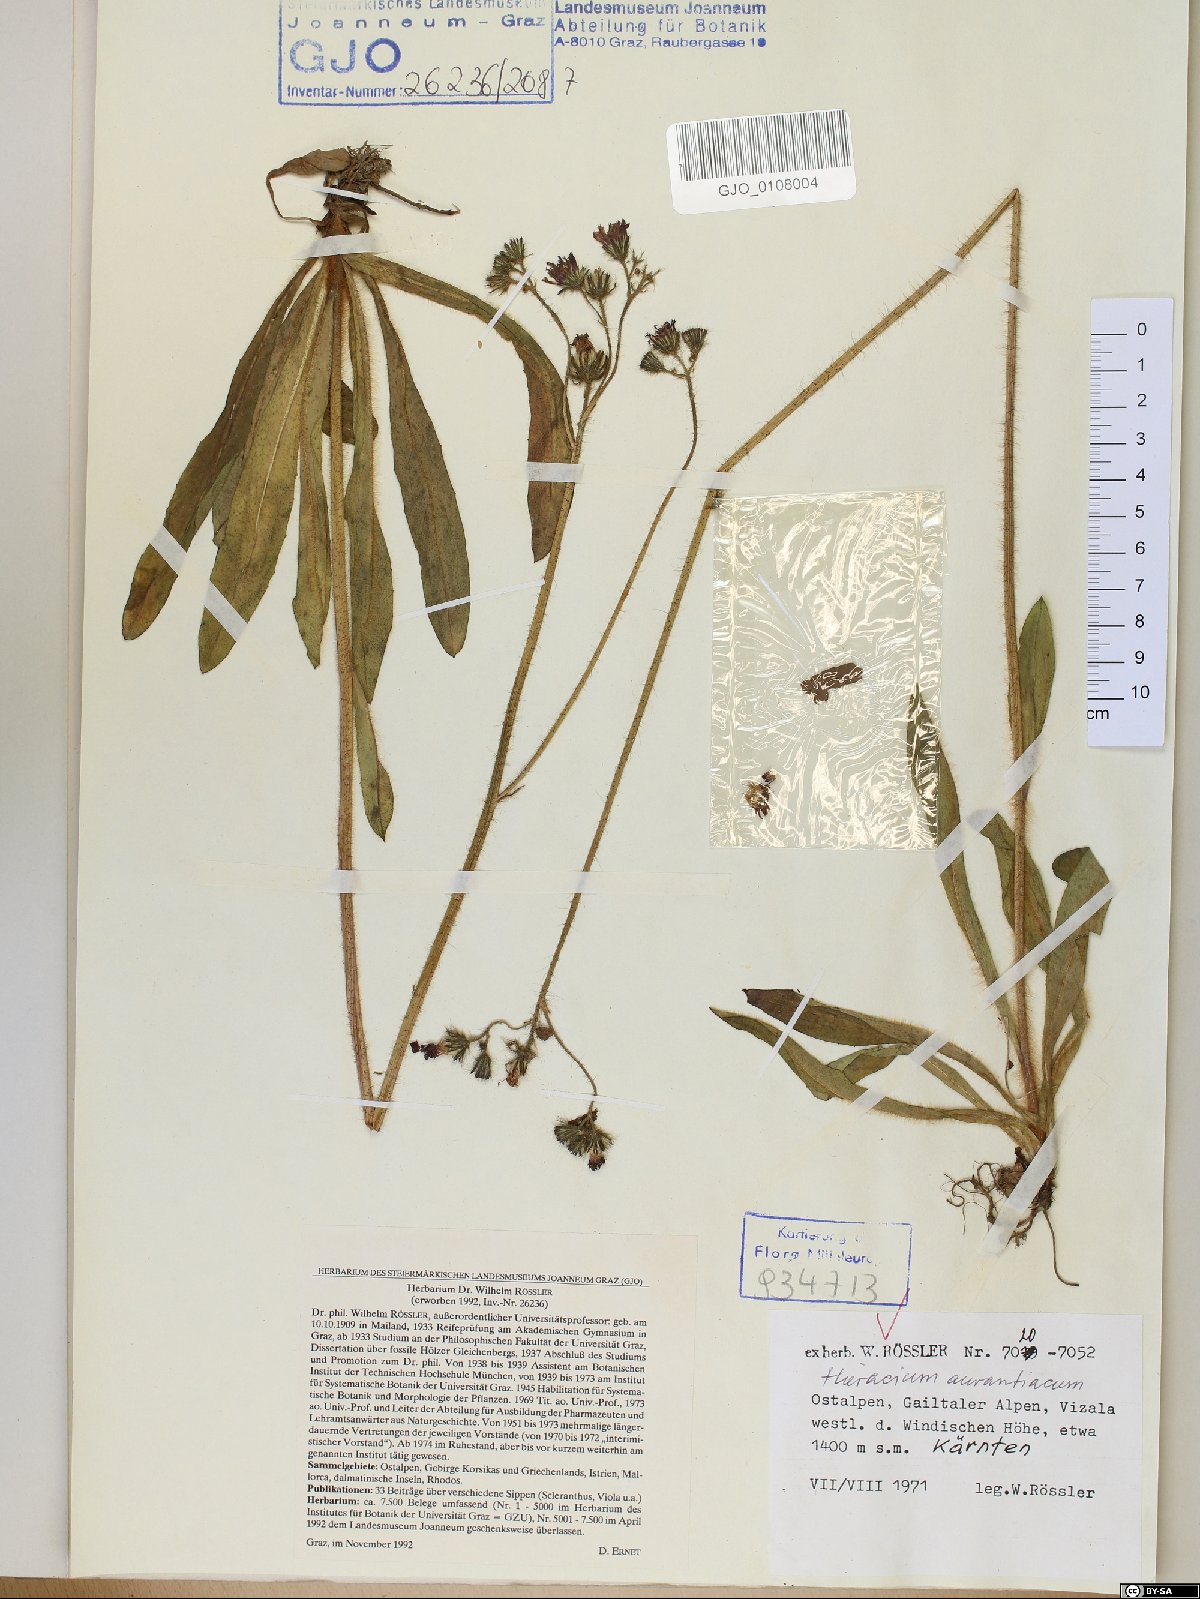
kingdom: Plantae
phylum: Tracheophyta
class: Magnoliopsida
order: Asterales
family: Asteraceae
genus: Pilosella
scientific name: Pilosella aurantiaca
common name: Fox-and-cubs
